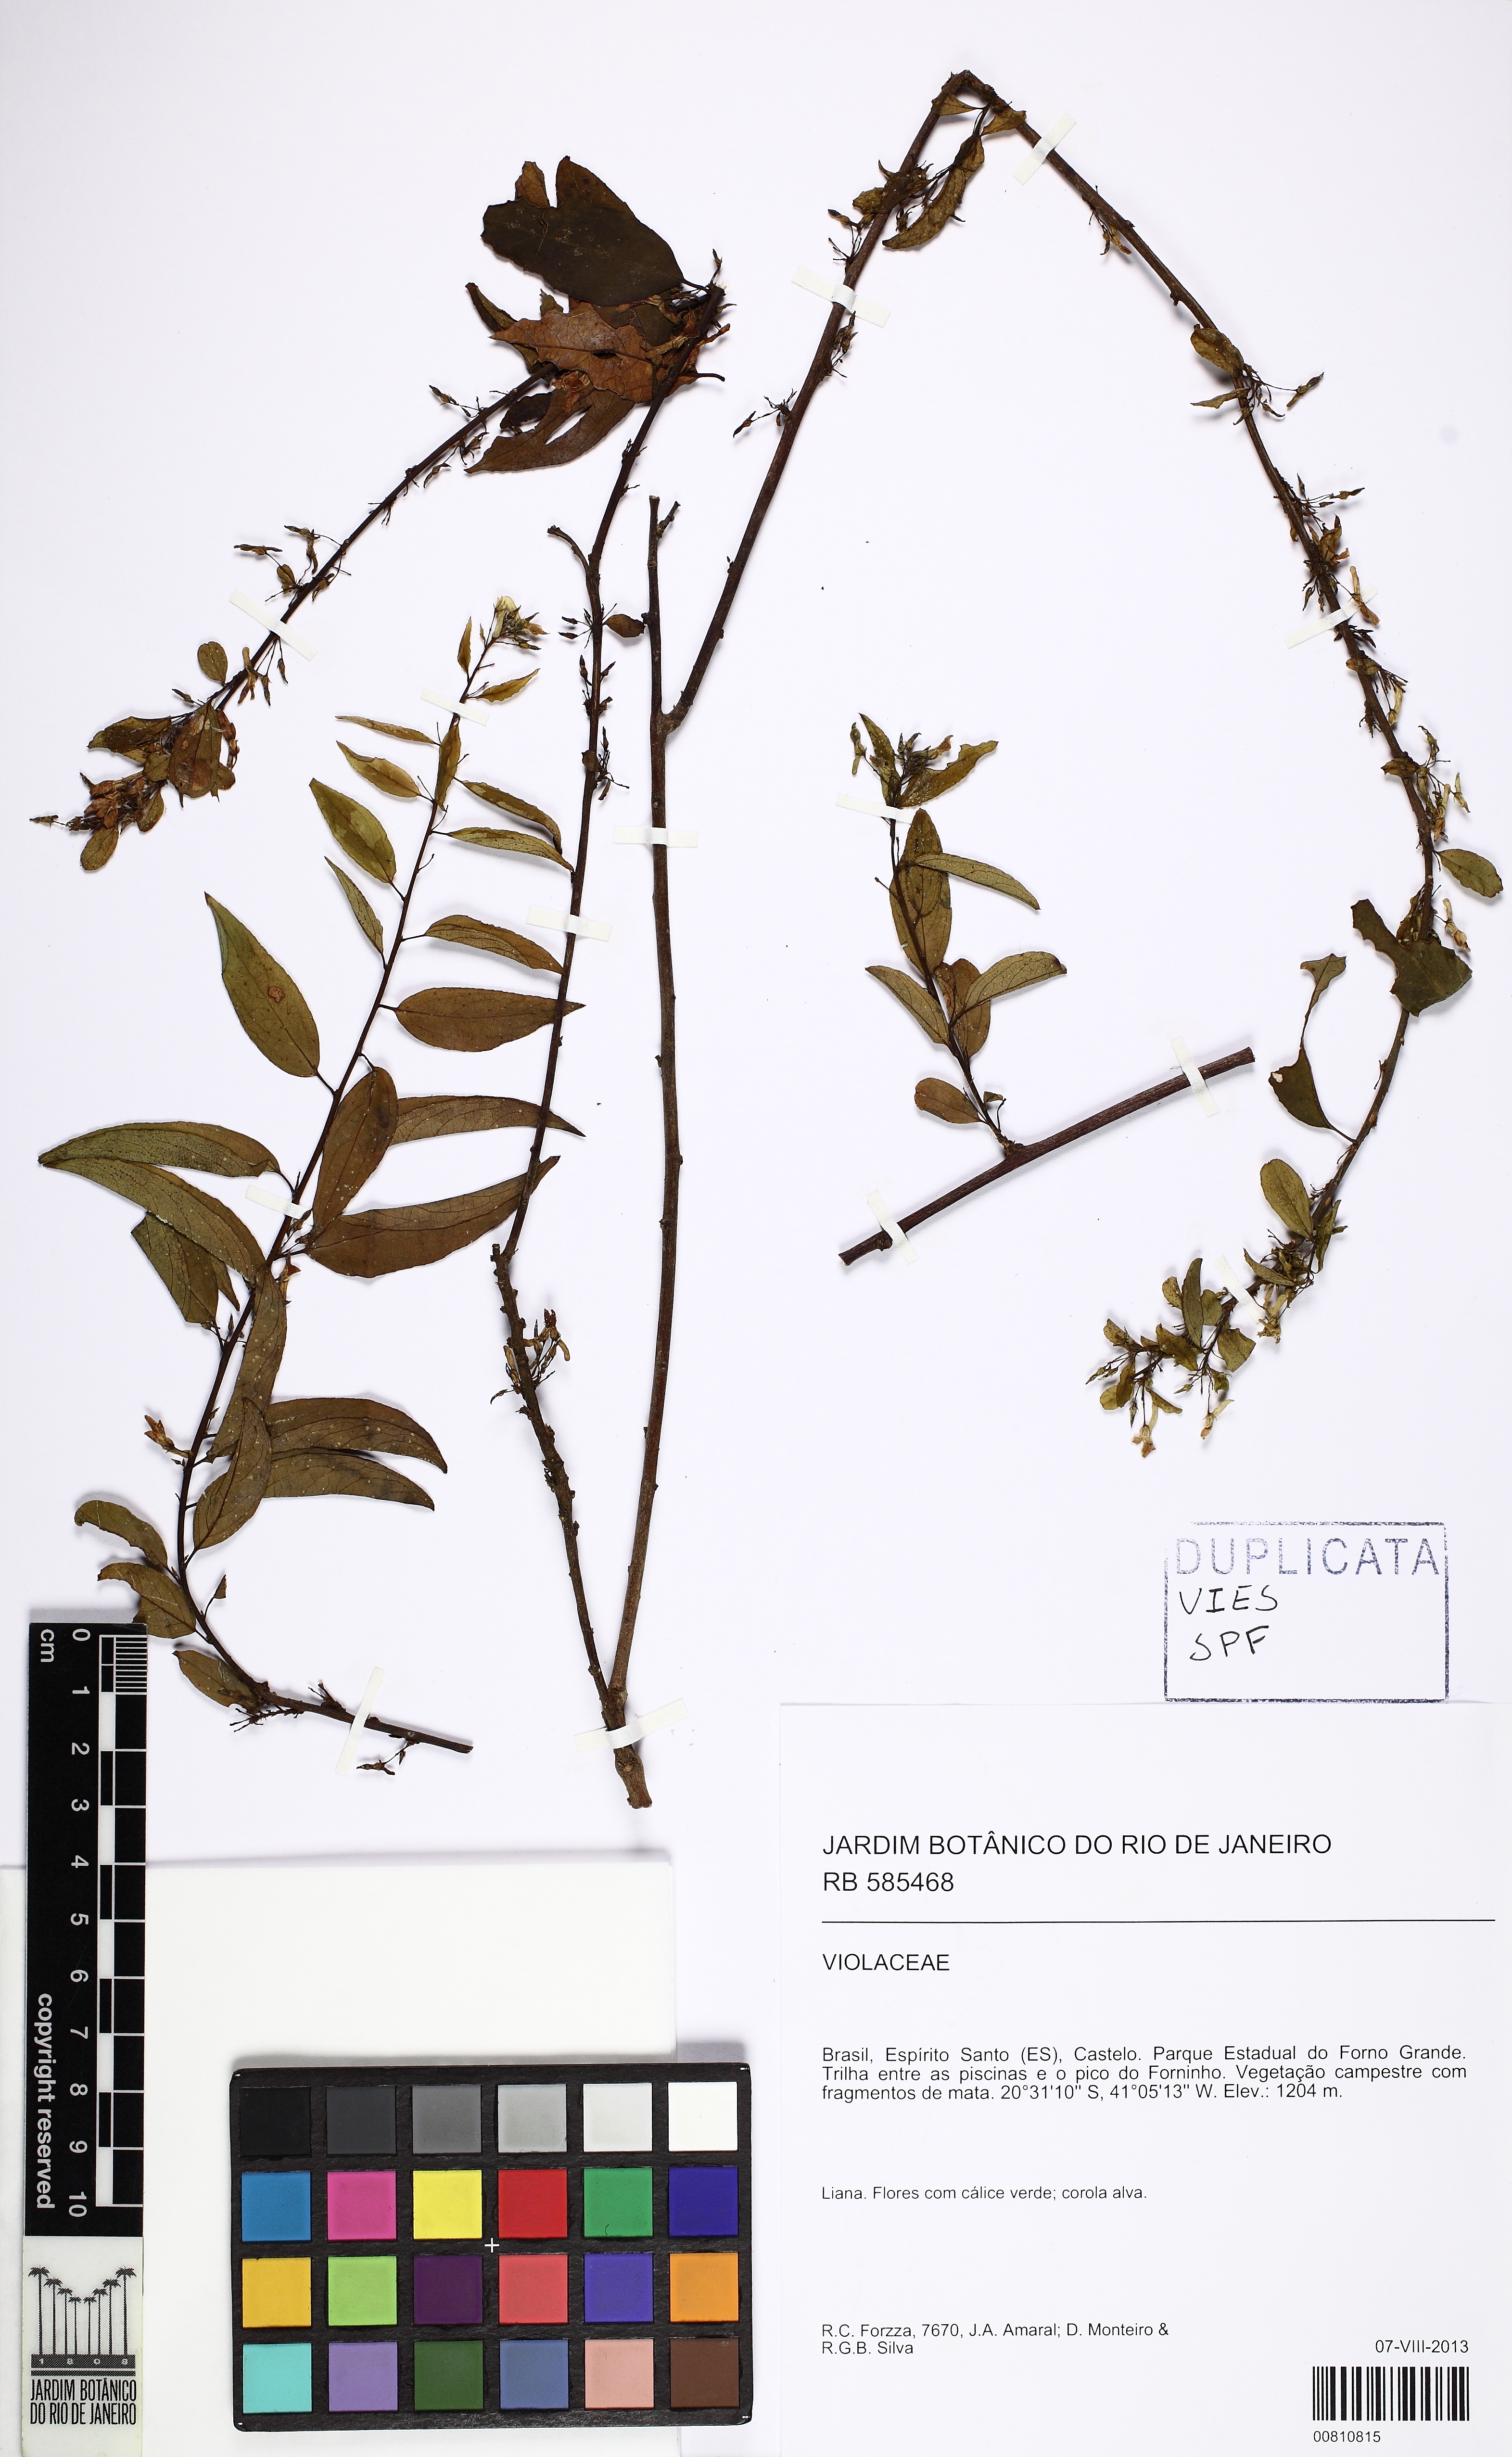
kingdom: Plantae
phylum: Tracheophyta
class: Magnoliopsida
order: Malpighiales
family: Violaceae
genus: Anchietea
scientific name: Anchietea
